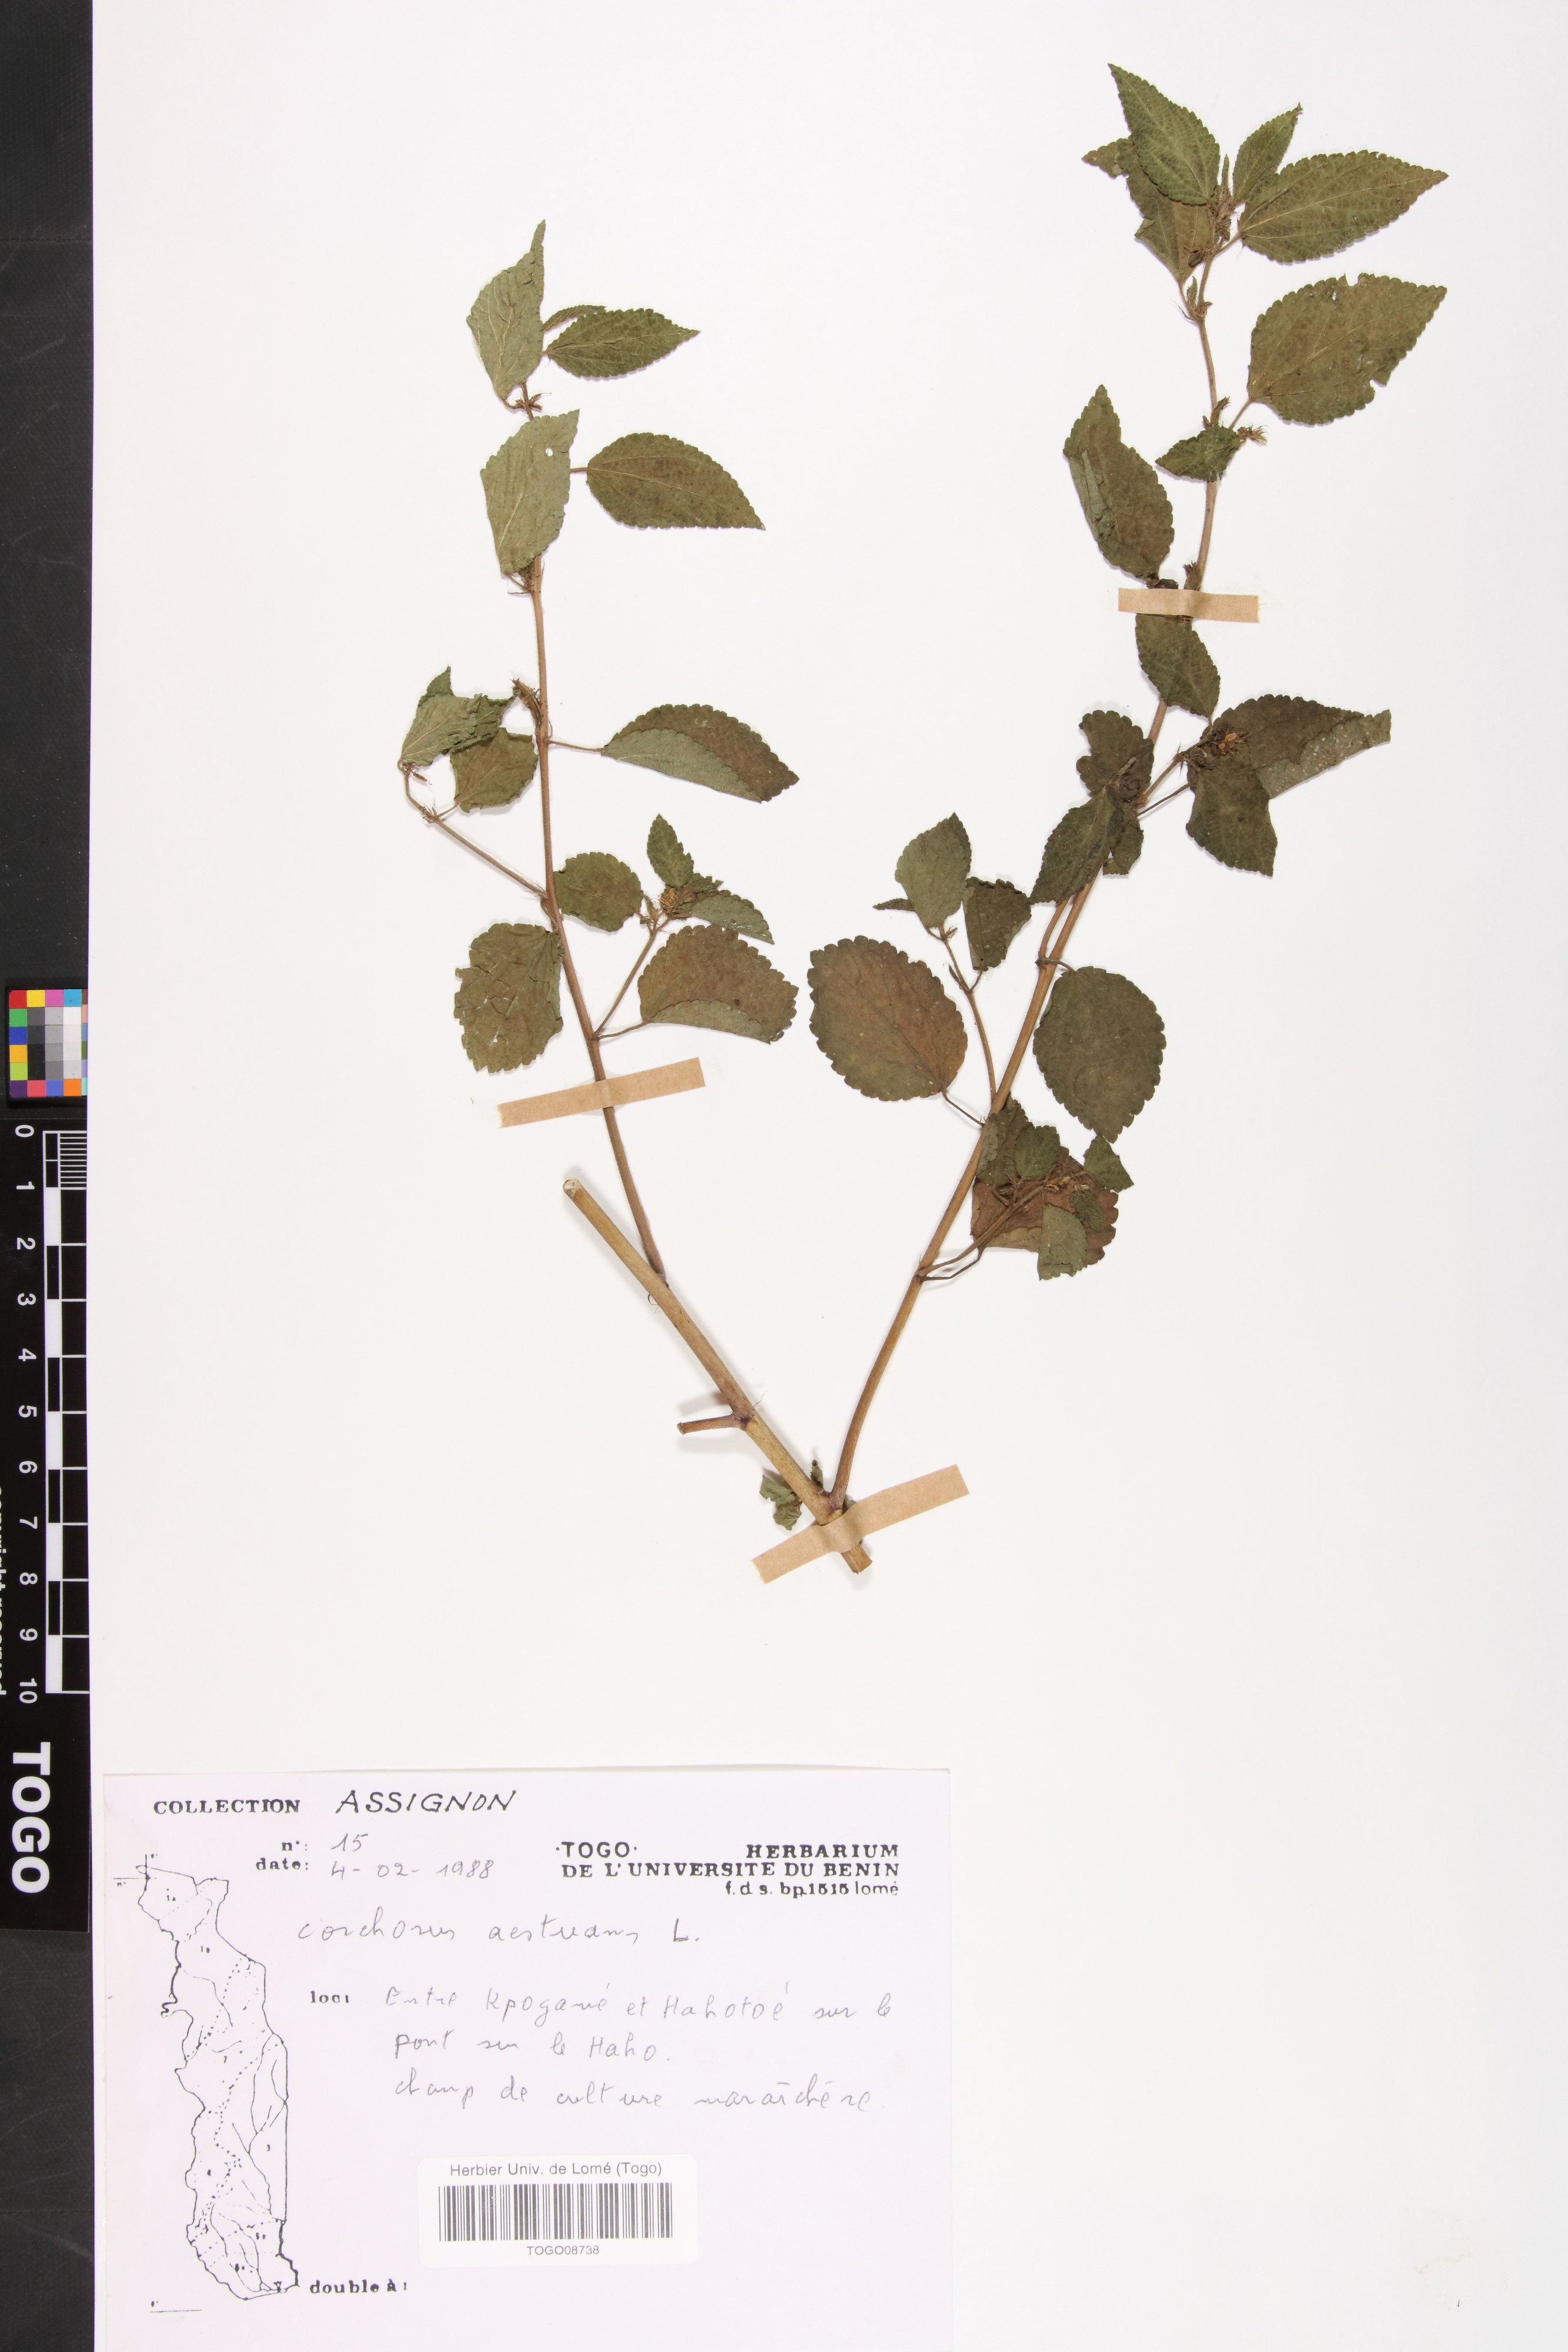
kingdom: Plantae
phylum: Tracheophyta
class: Magnoliopsida
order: Malvales
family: Malvaceae
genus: Corchorus
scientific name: Corchorus aestuans
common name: Jute
